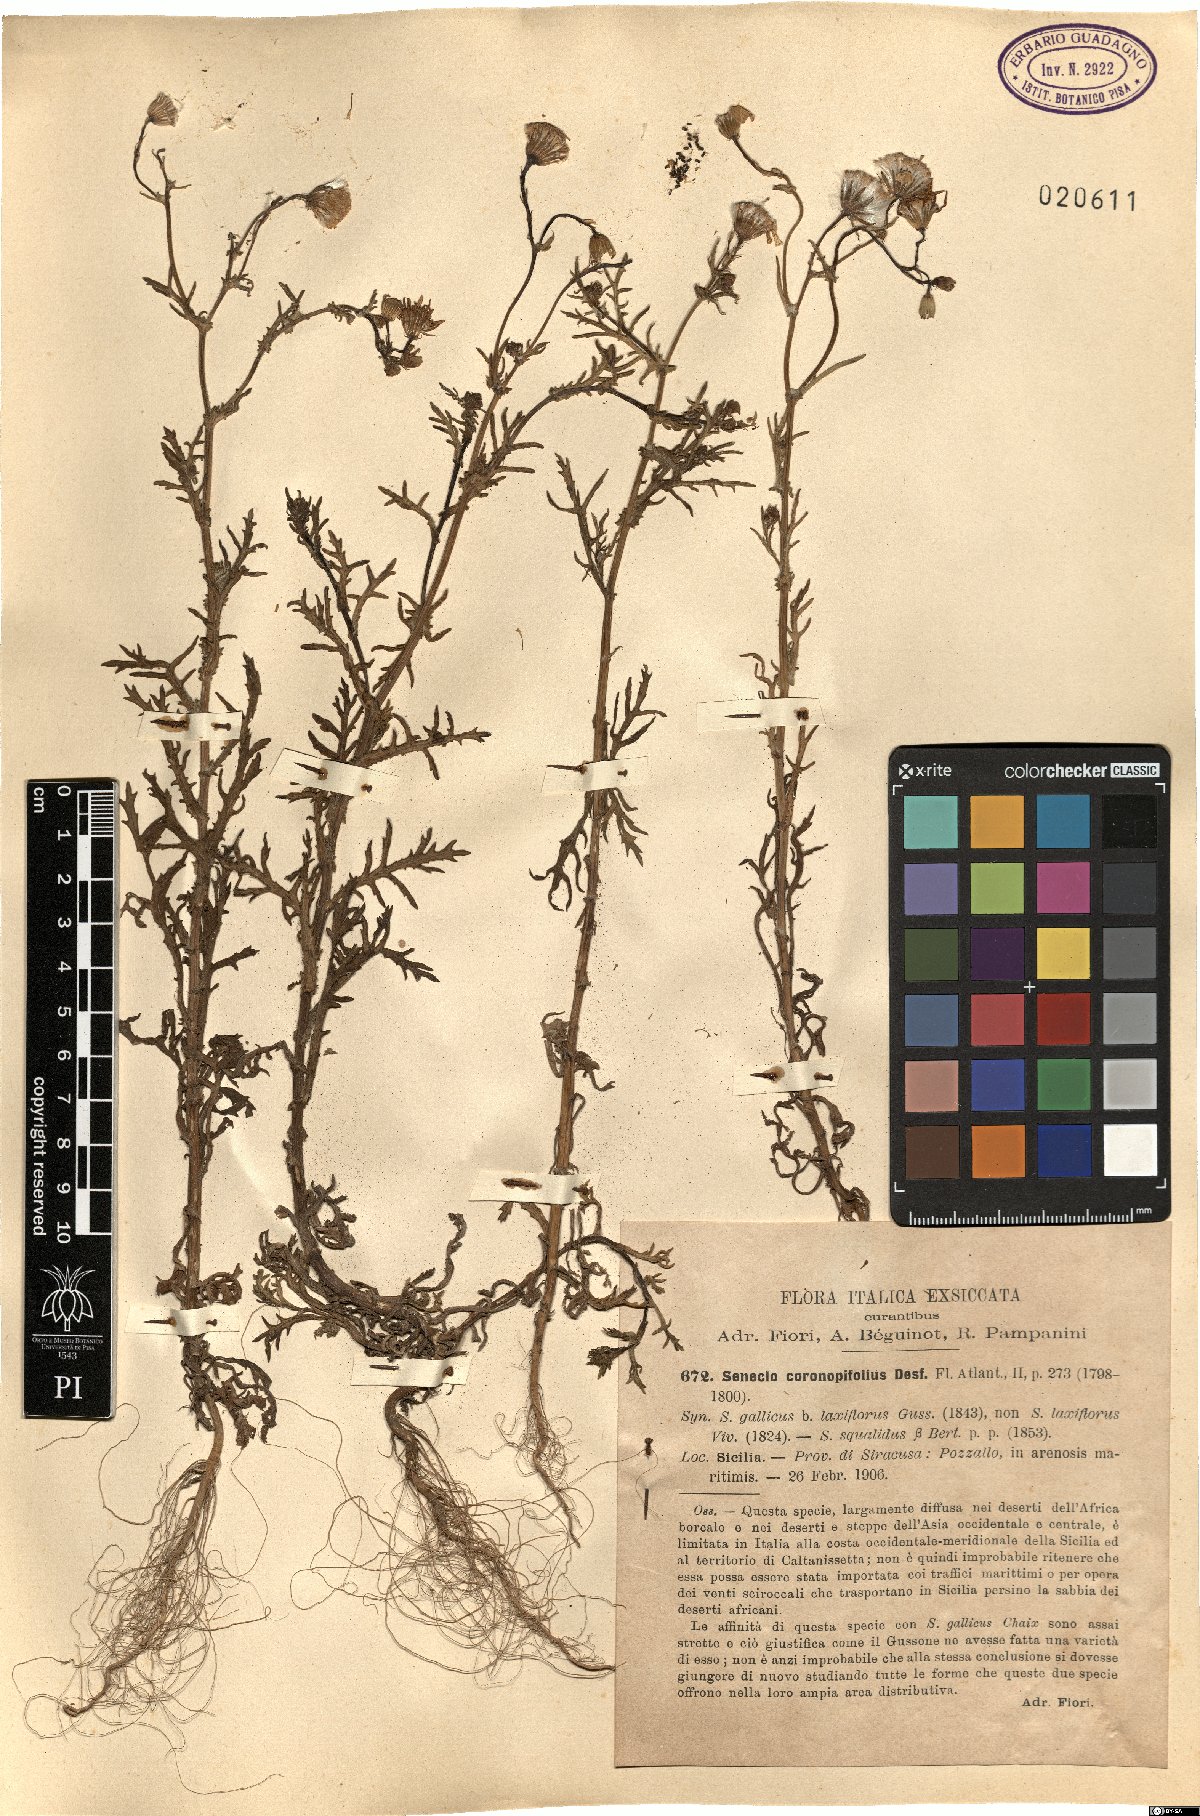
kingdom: Plantae
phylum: Tracheophyta
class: Magnoliopsida
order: Asterales
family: Asteraceae
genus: Senecio
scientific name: Senecio glaucus
